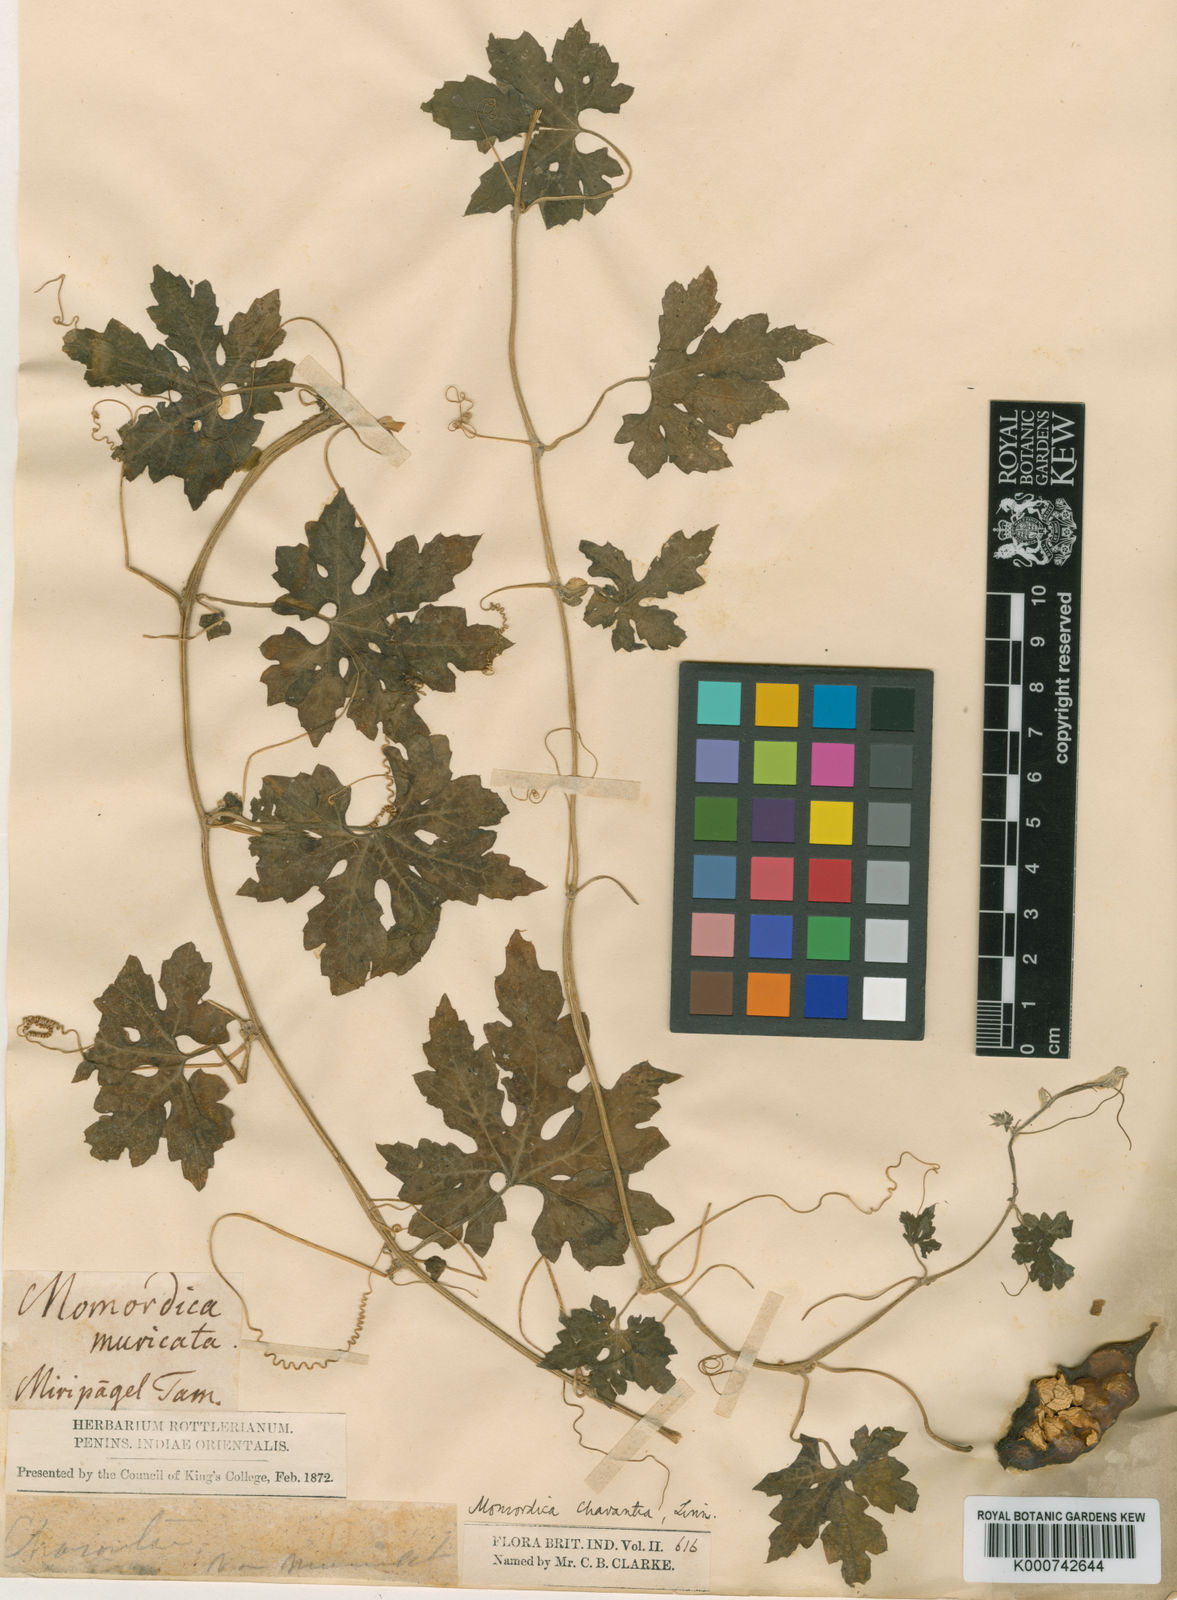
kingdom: Plantae
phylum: Tracheophyta
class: Magnoliopsida
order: Cucurbitales
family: Cucurbitaceae
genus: Momordica
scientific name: Momordica charantia
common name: Balsampear
